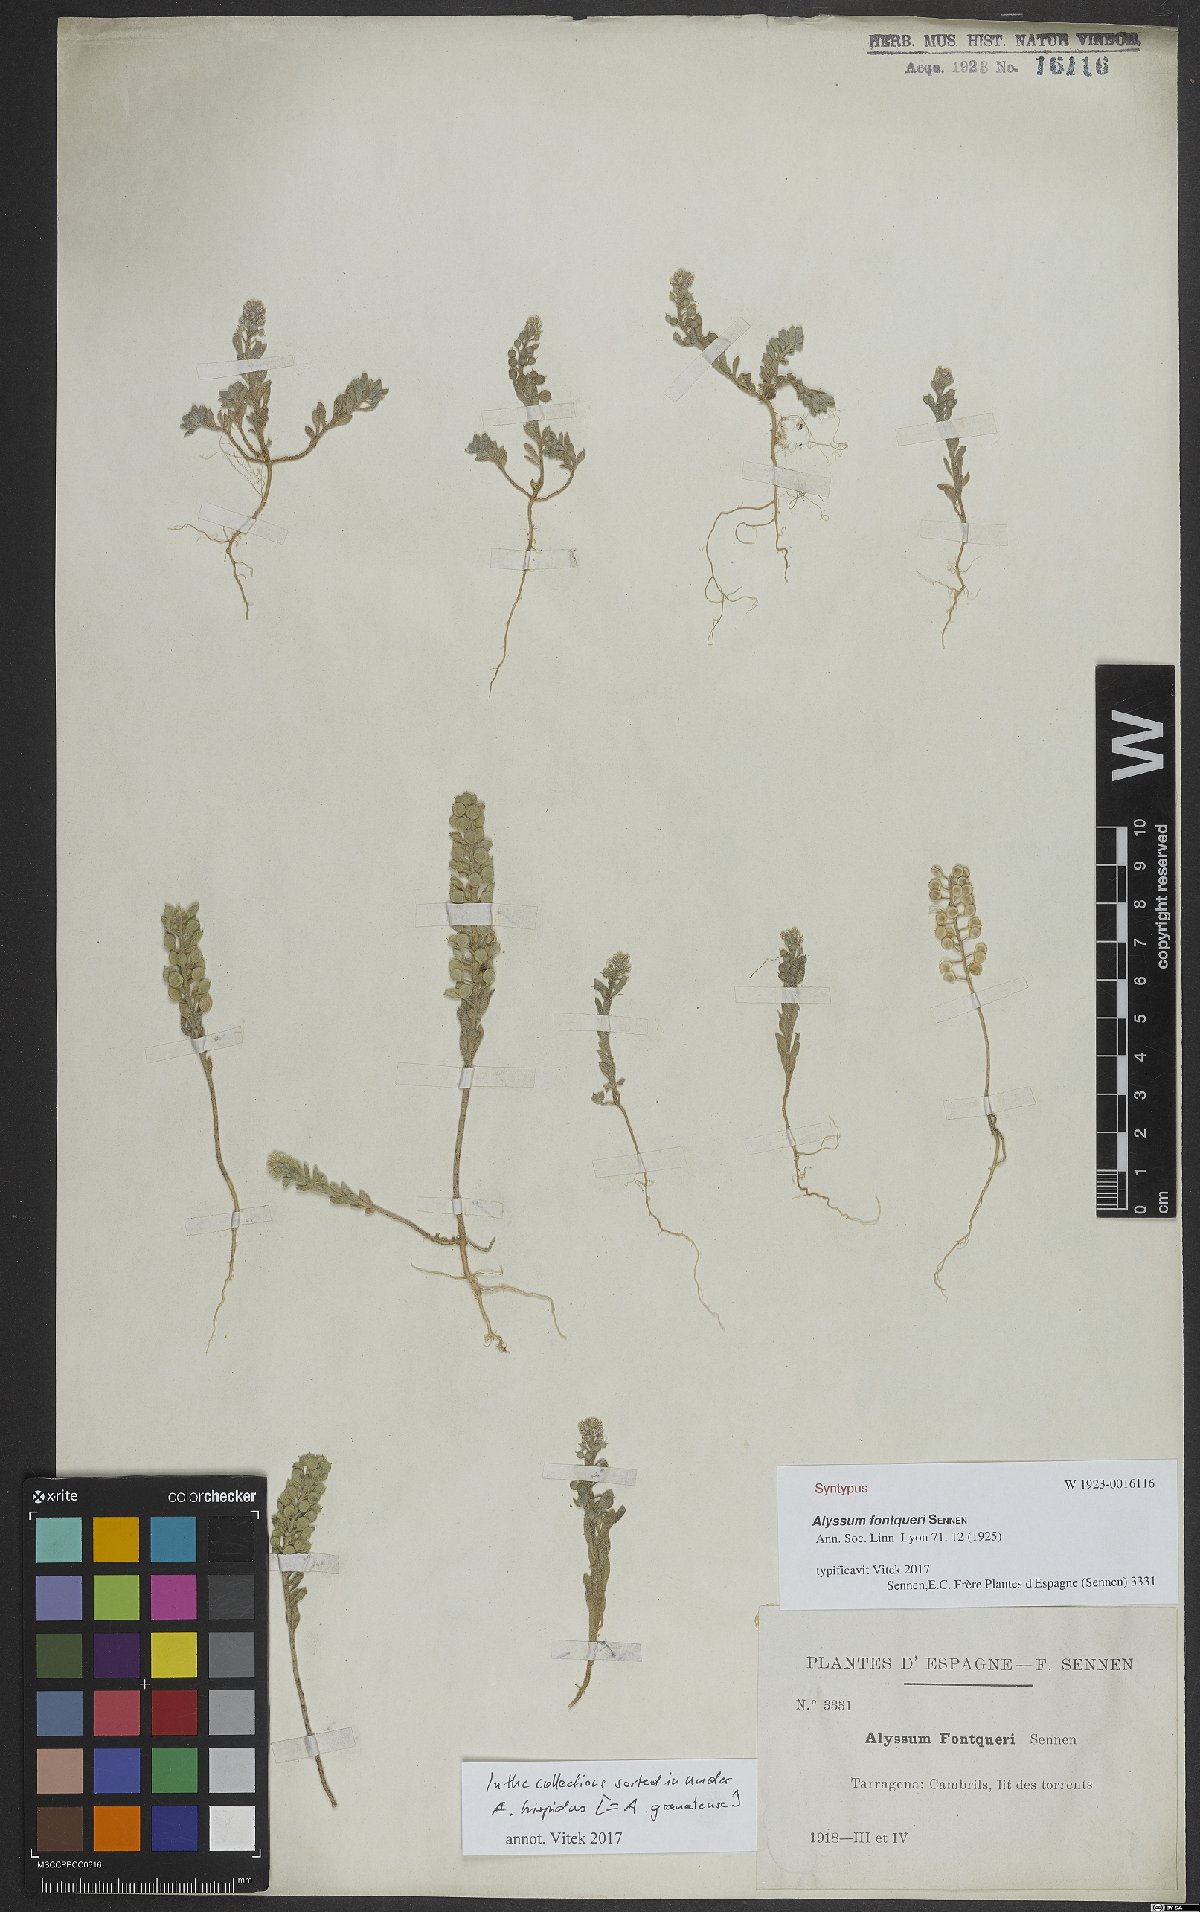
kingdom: Plantae
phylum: Tracheophyta
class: Magnoliopsida
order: Brassicales
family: Brassicaceae
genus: Alyssum
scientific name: Alyssum alyssoides
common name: Small alison
